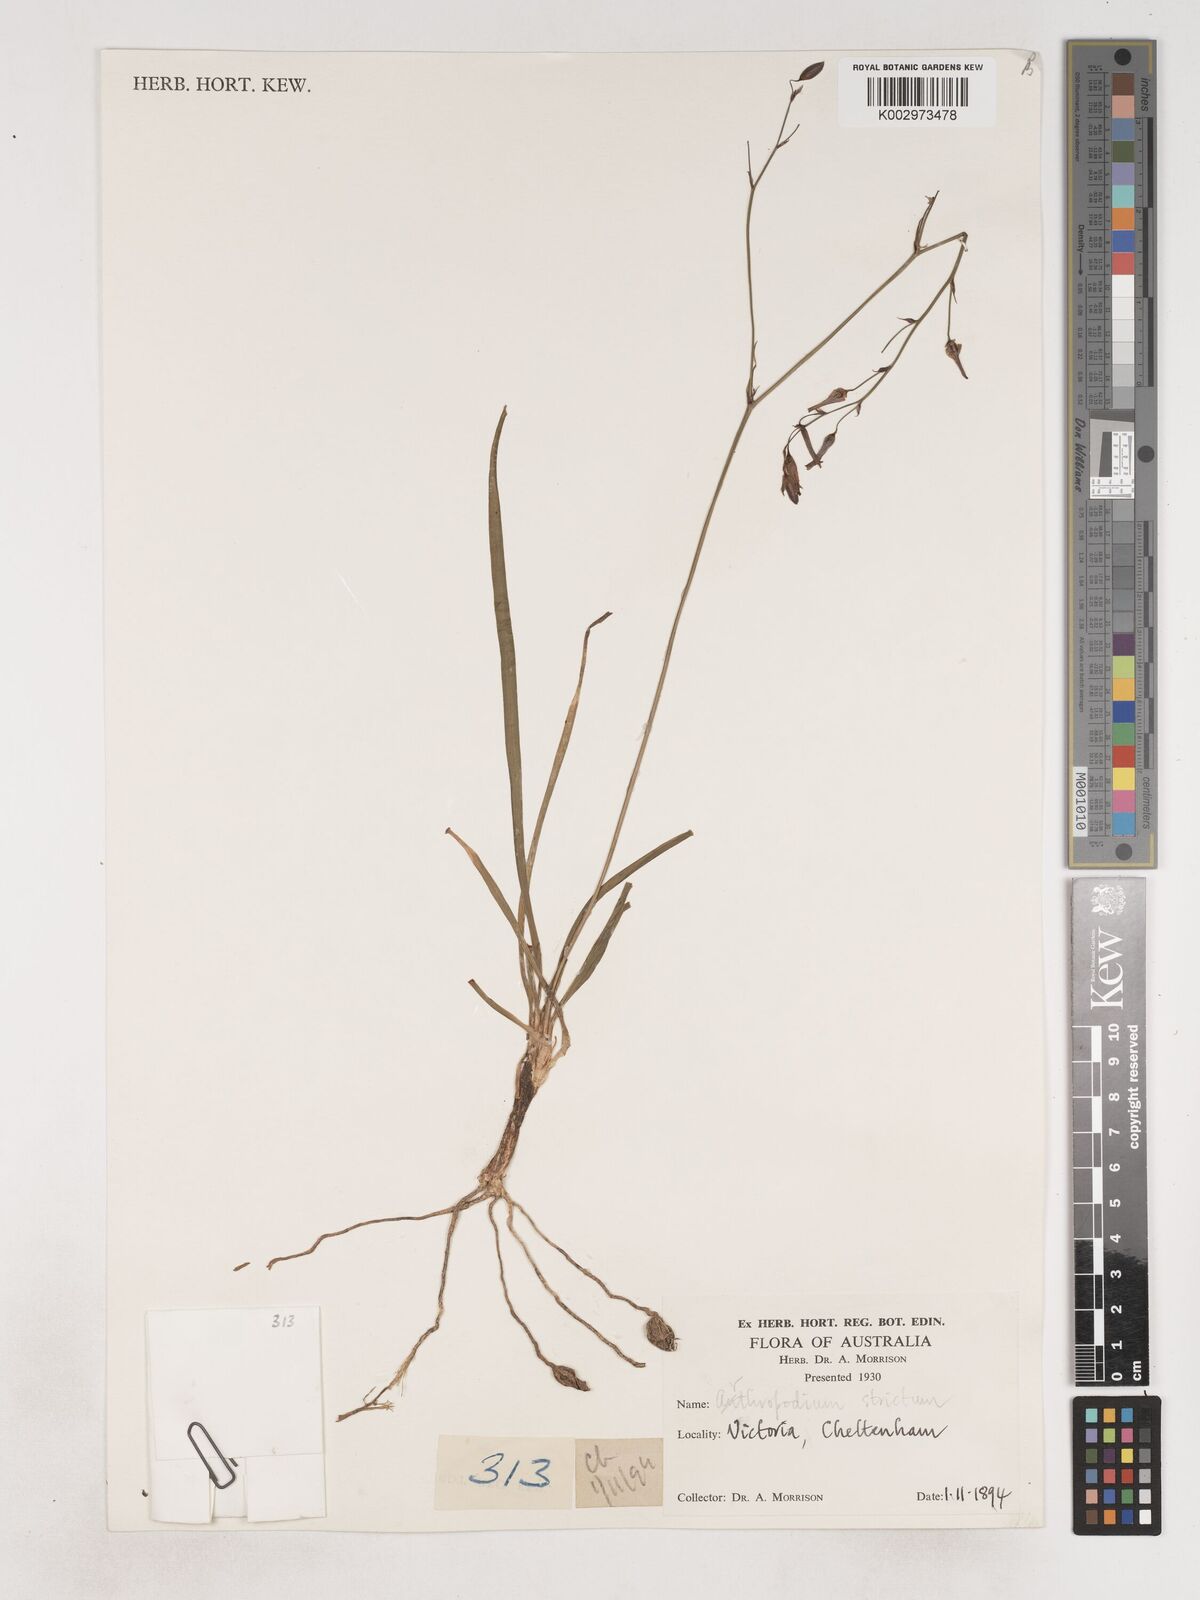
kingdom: Plantae
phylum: Tracheophyta
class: Liliopsida
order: Asparagales
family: Asparagaceae
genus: Arthropodium
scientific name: Arthropodium strictum
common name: Chocolate-lily
